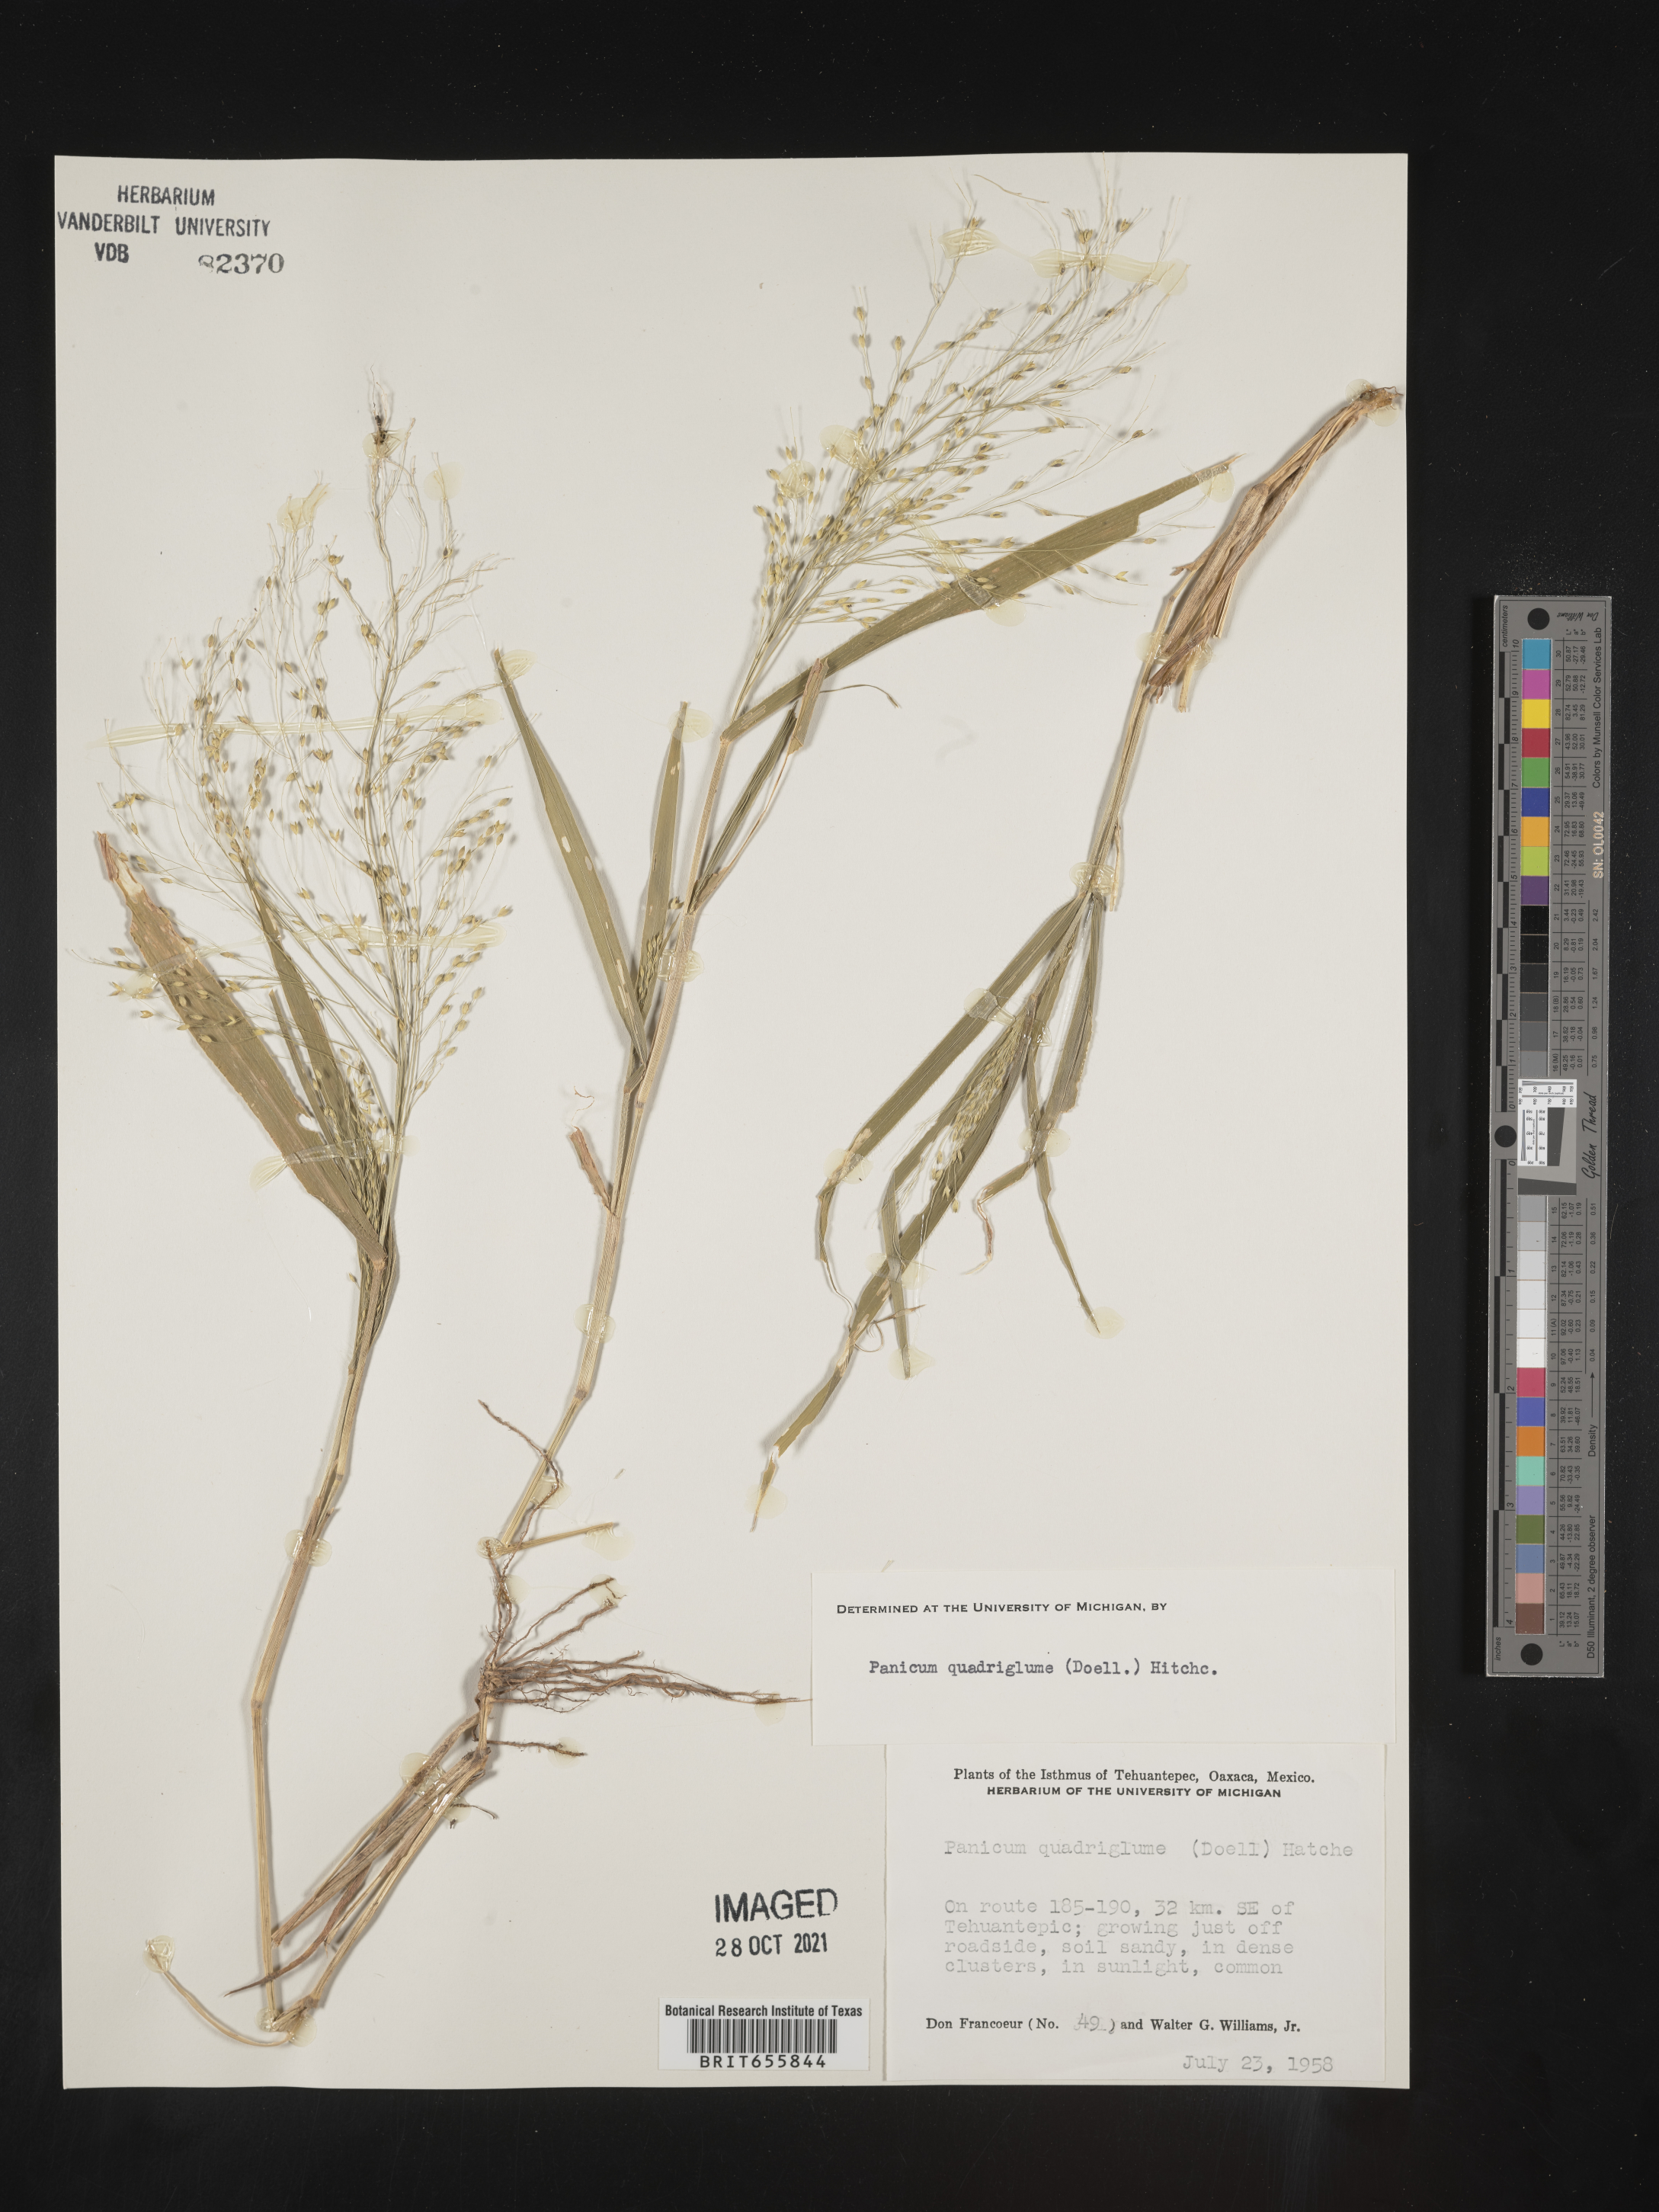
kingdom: Plantae
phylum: Tracheophyta
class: Liliopsida
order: Poales
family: Poaceae
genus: Panicum
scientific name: Panicum
